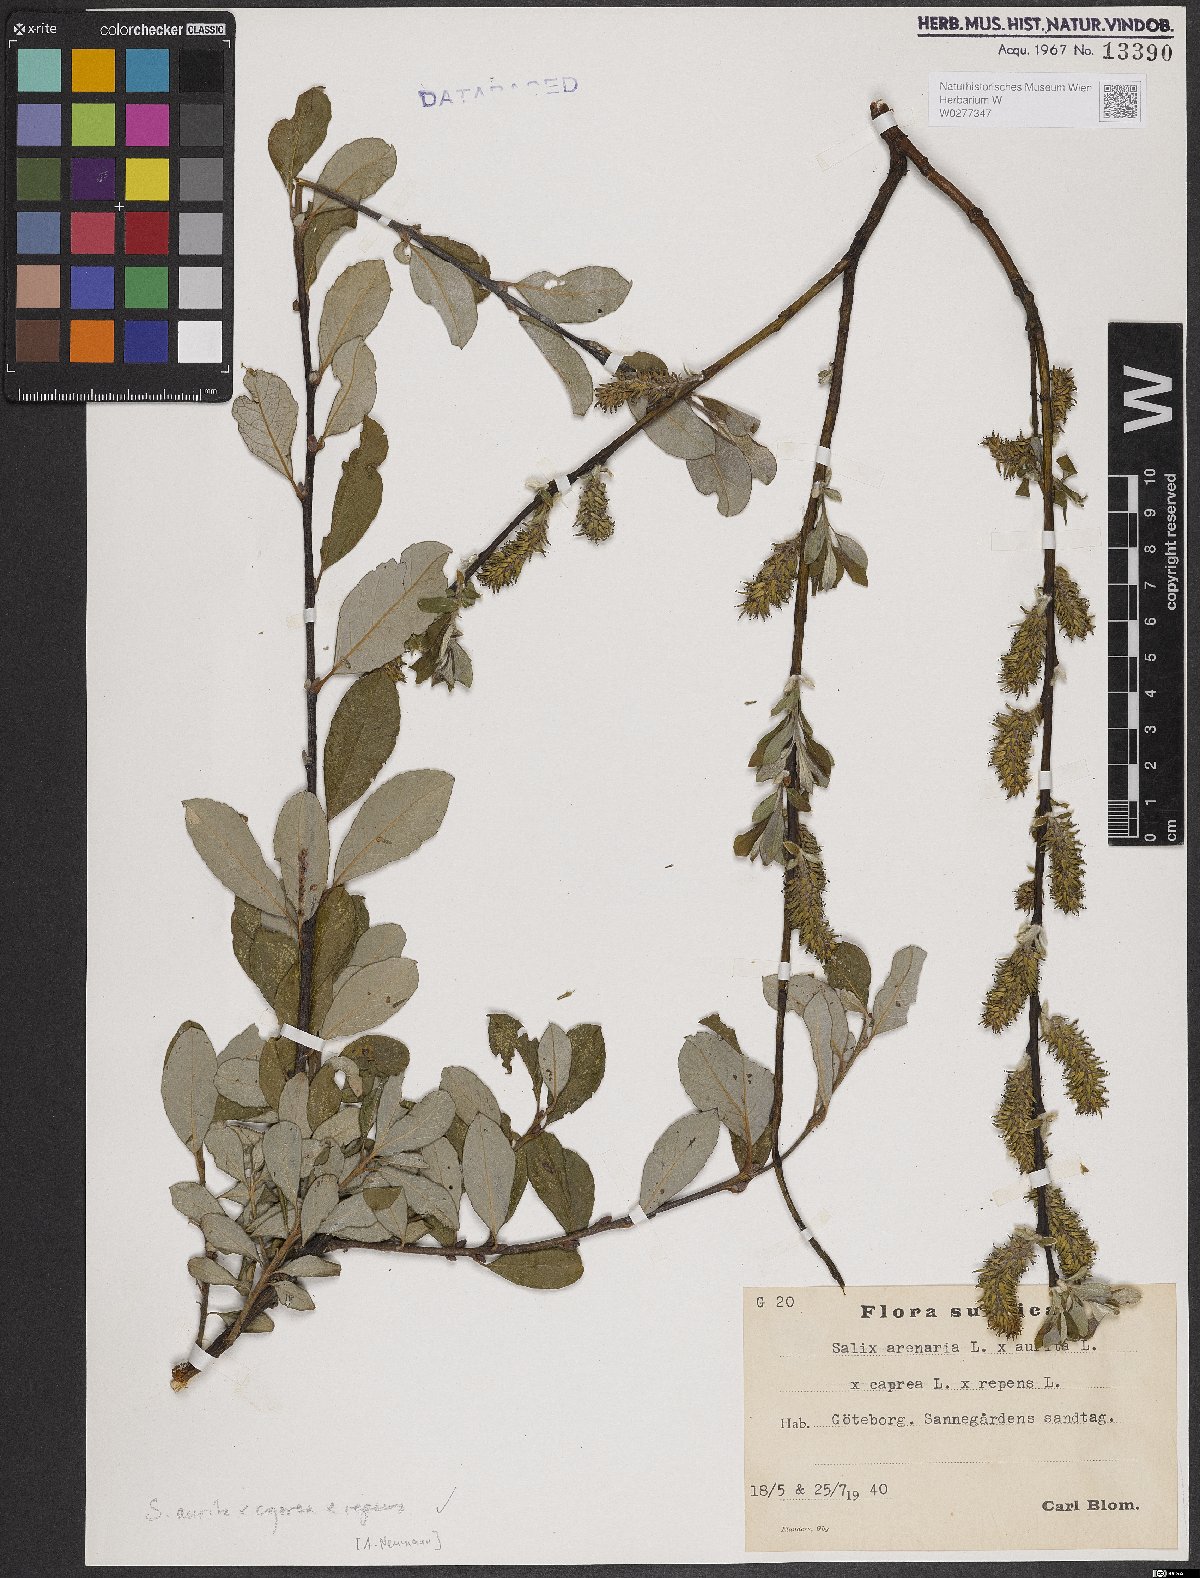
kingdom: Plantae
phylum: Tracheophyta
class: Magnoliopsida
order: Malpighiales
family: Salicaceae
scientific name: Salicaceae
